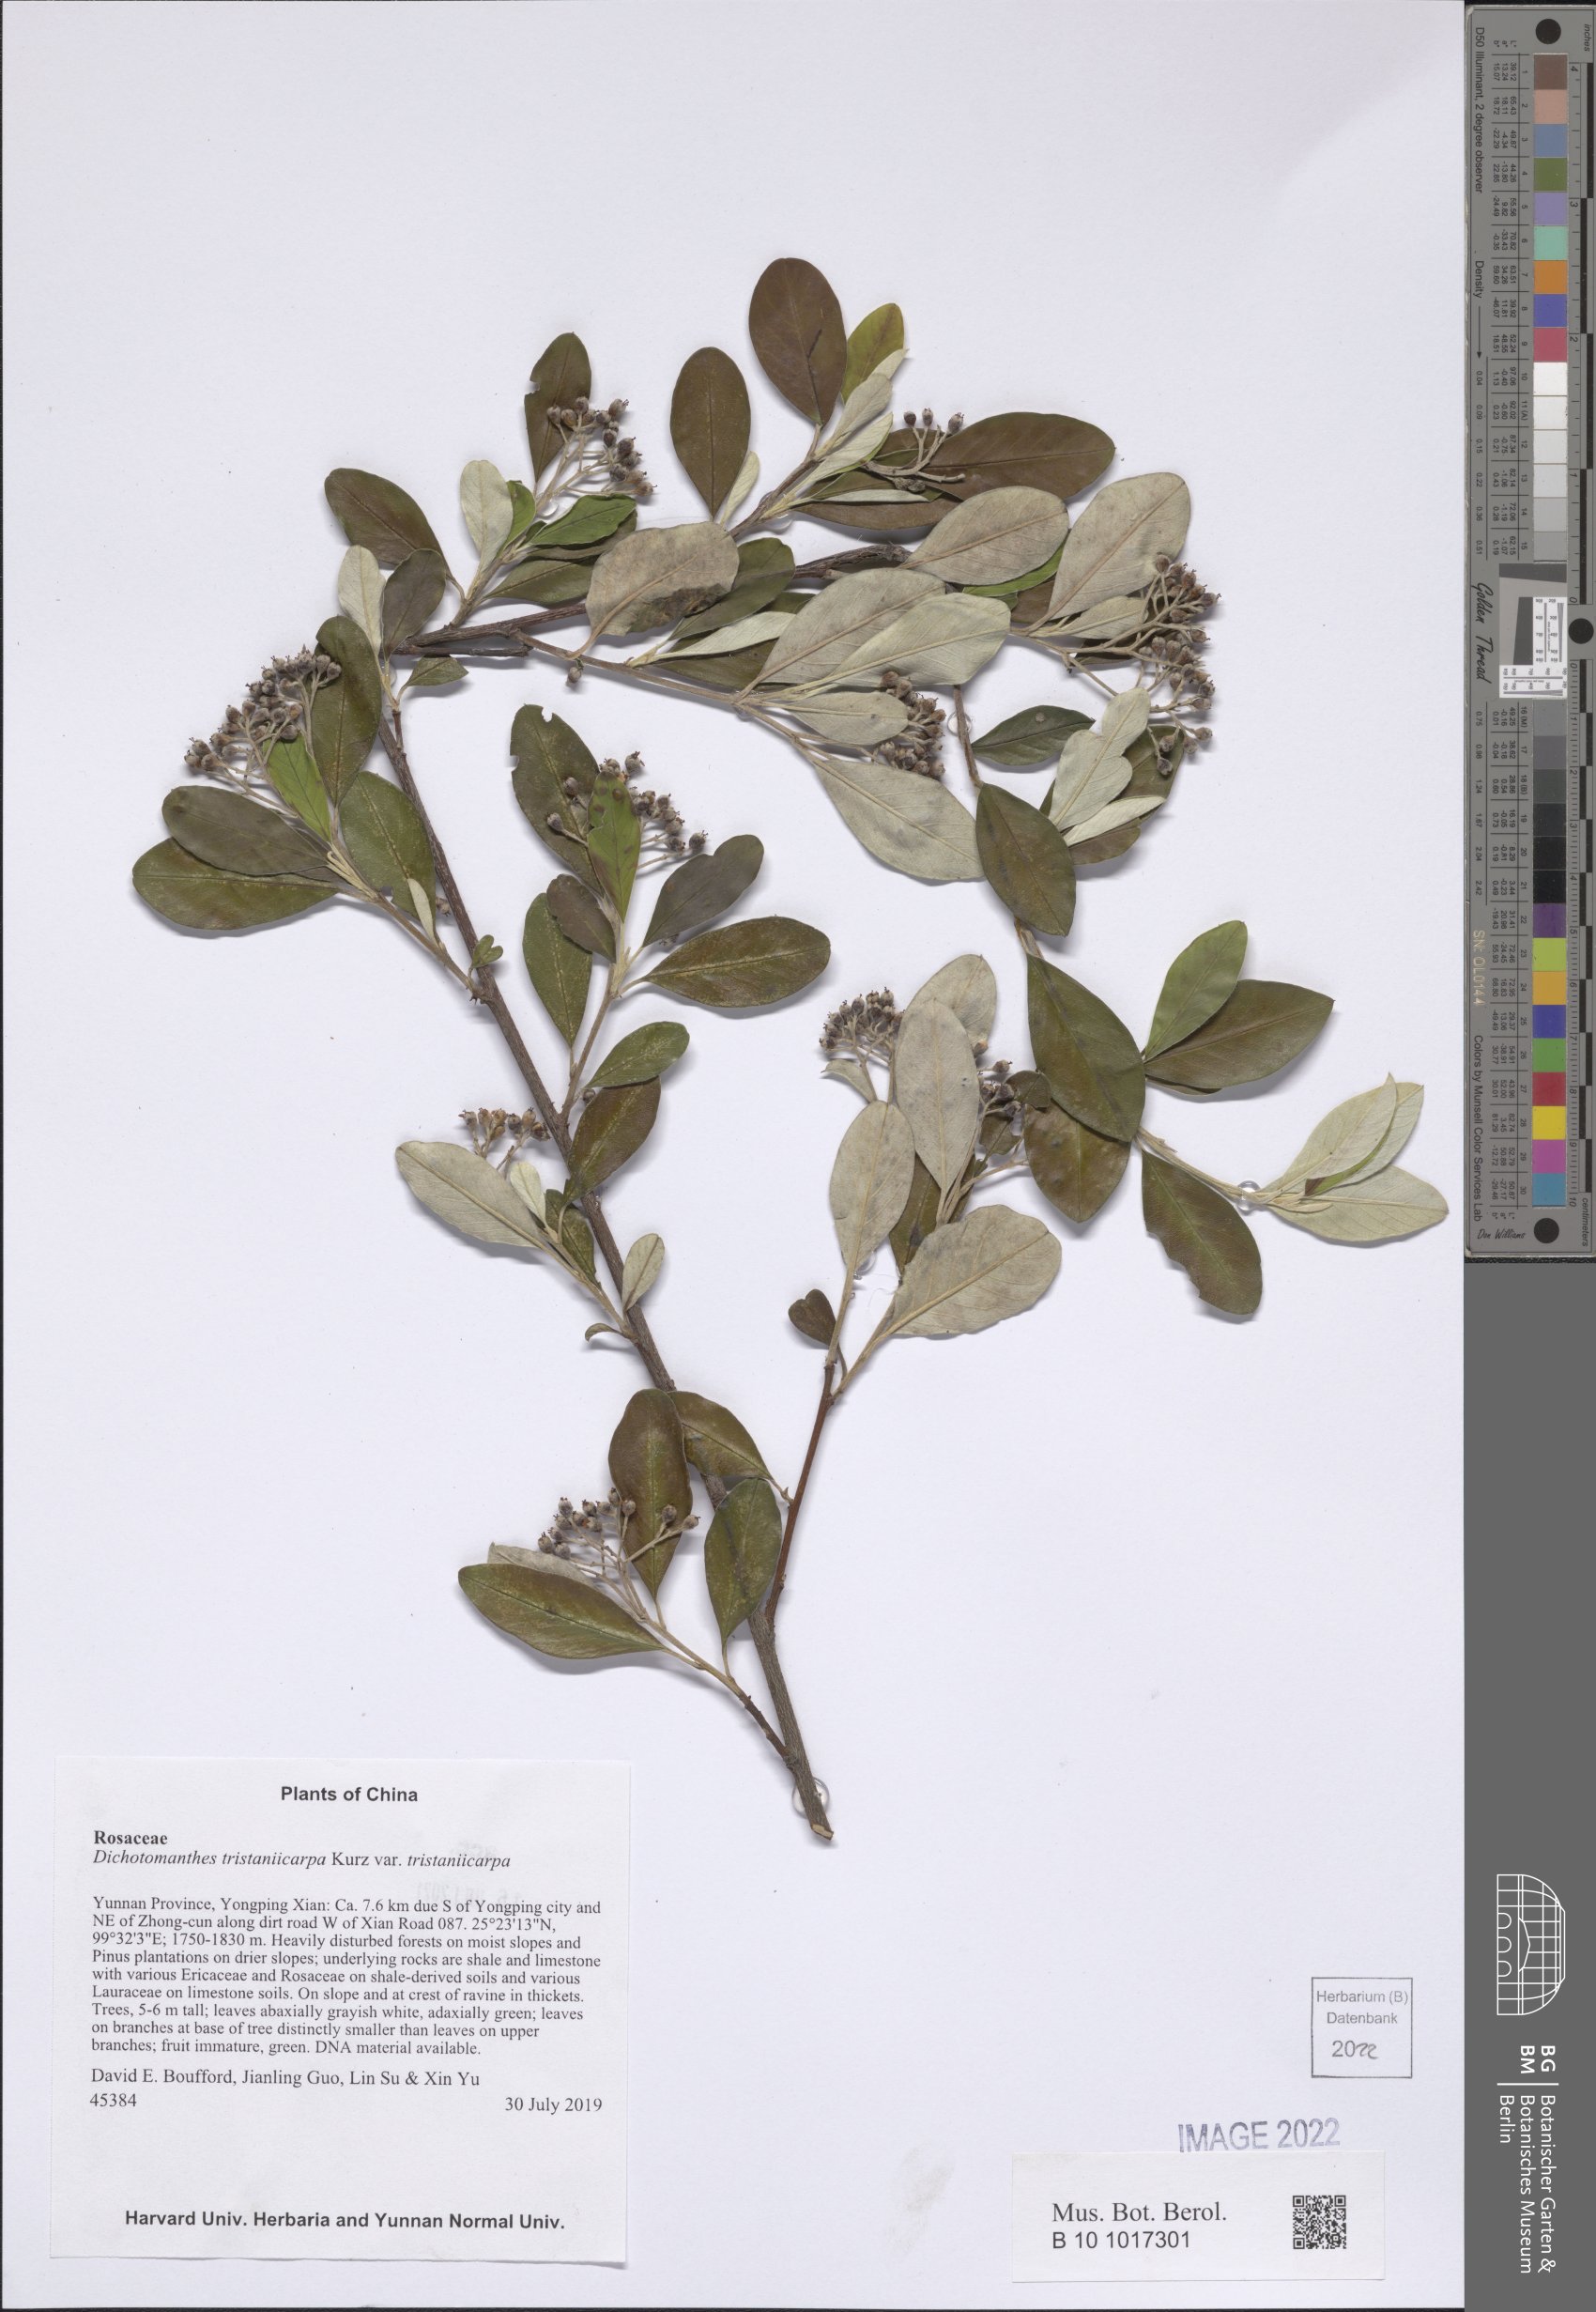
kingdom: Plantae
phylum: Tracheophyta
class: Magnoliopsida
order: Rosales
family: Rosaceae
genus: Dichotomanthes
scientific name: Dichotomanthes tristaniicarpa
